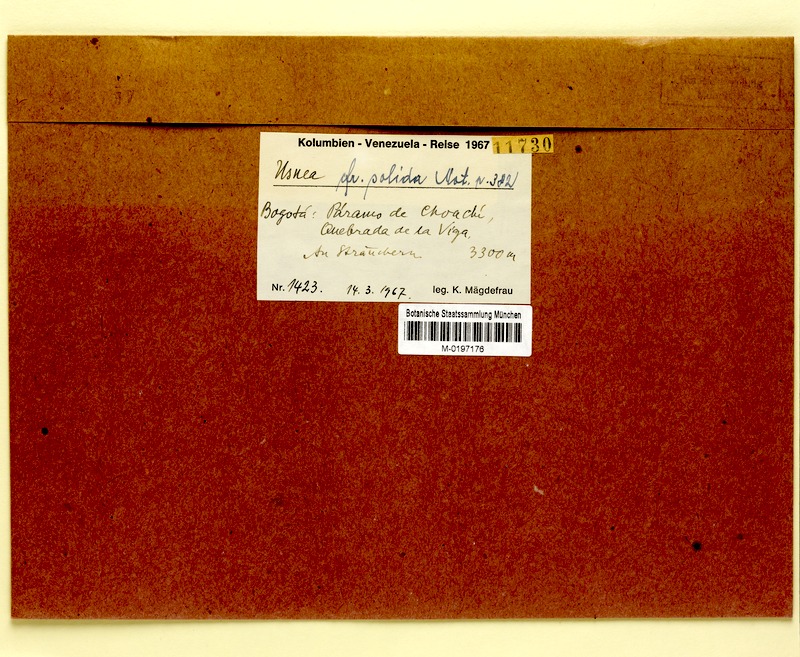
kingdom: Fungi
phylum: Ascomycota
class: Lecanoromycetes
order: Lecanorales
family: Parmeliaceae
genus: Usnea
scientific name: Usnea
